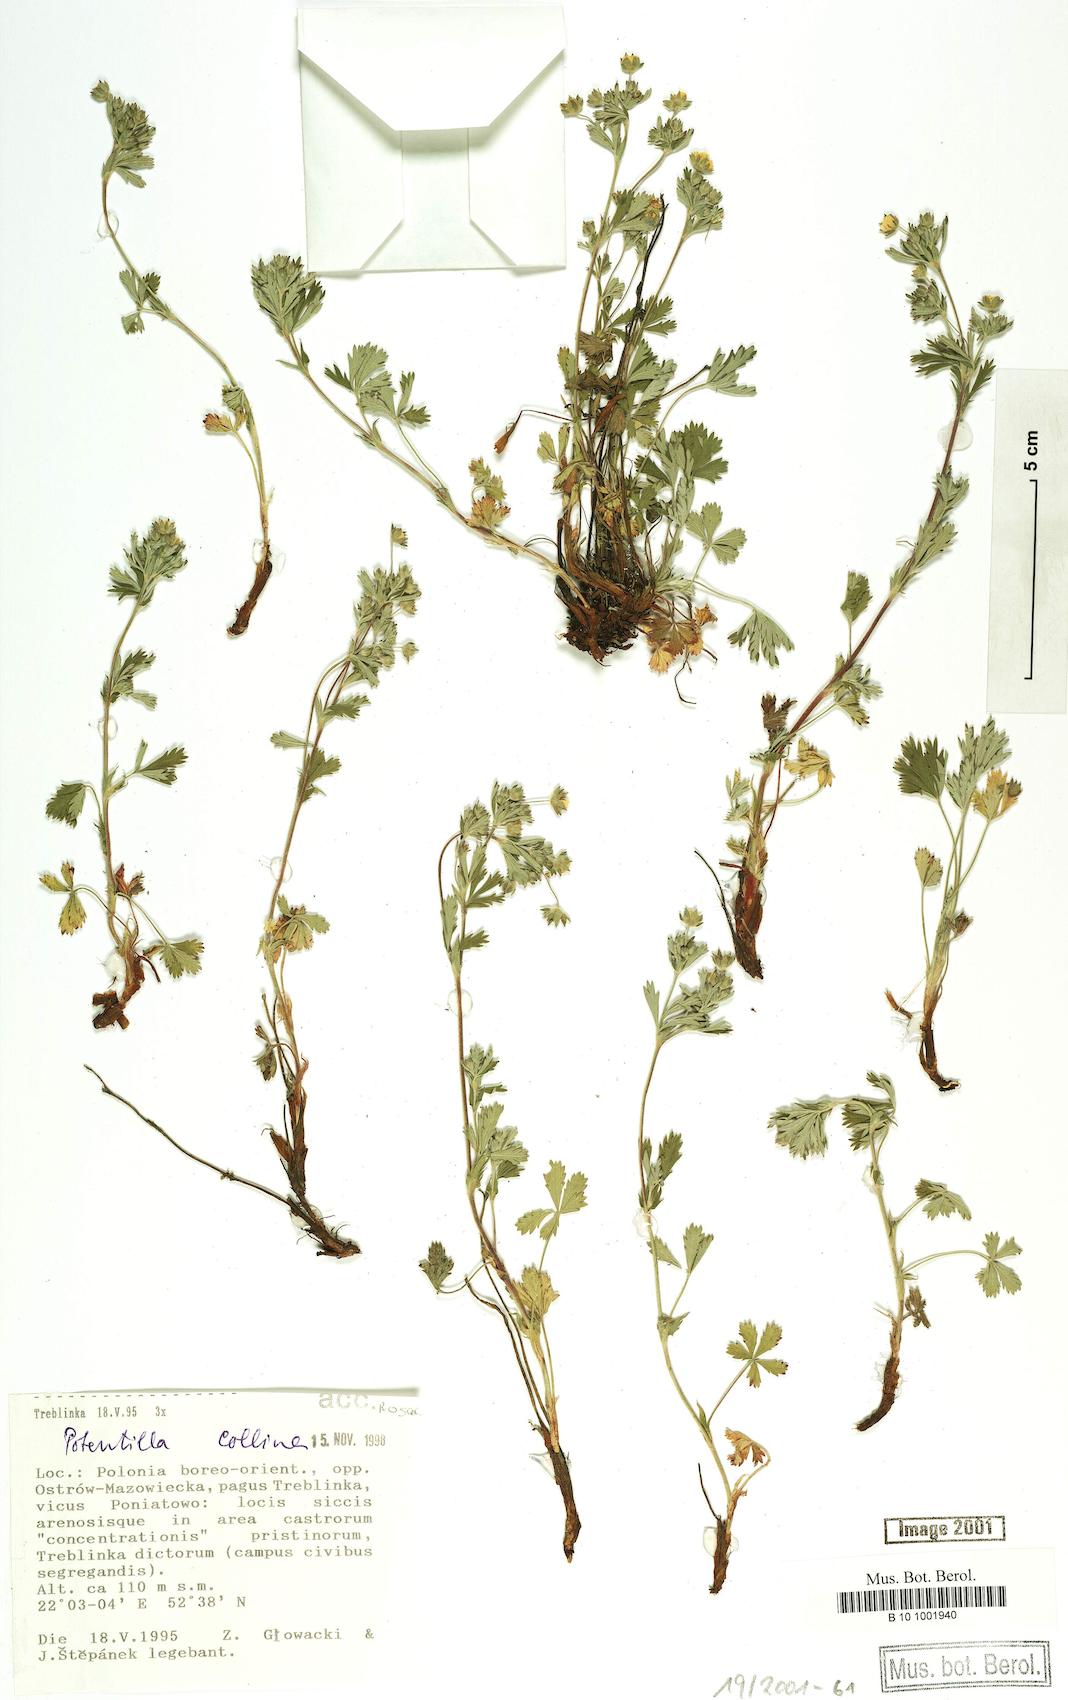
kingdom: Plantae
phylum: Tracheophyta
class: Magnoliopsida
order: Rosales
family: Rosaceae
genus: Potentilla
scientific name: Potentilla collina
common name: Palmleaf cinquefoil
